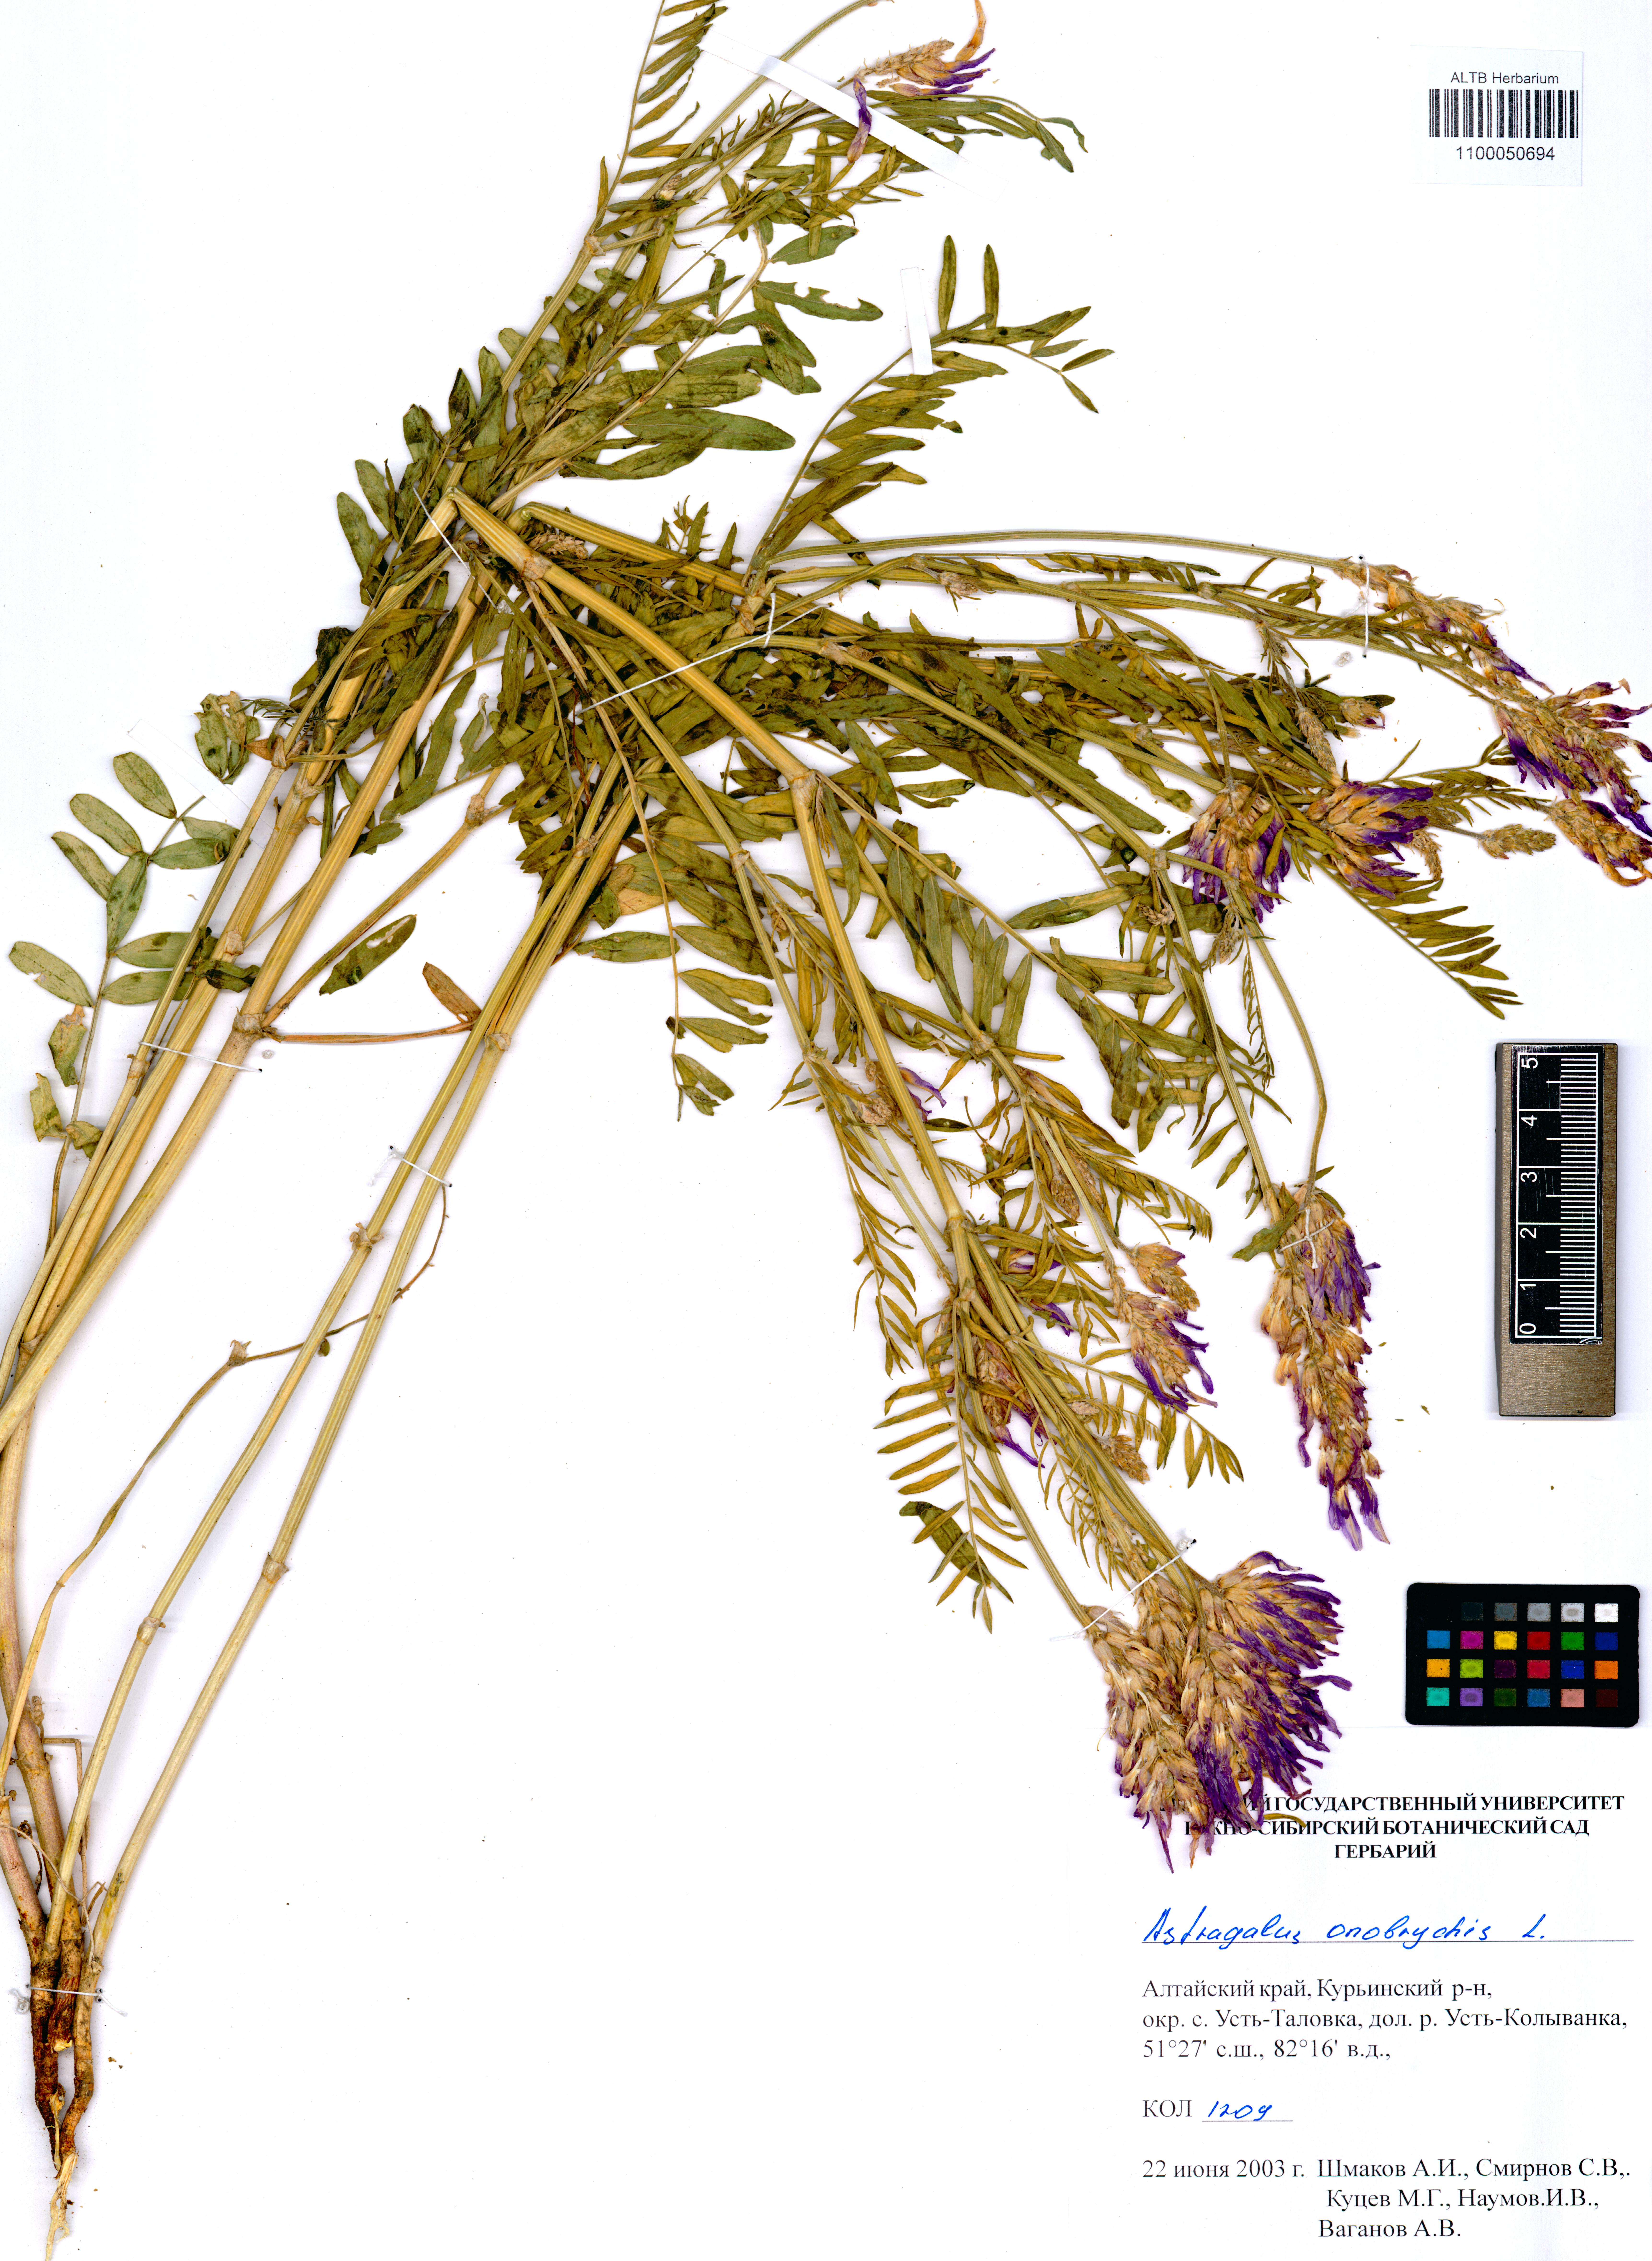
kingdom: Plantae
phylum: Tracheophyta
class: Magnoliopsida
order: Fabales
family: Fabaceae
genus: Astragalus
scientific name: Astragalus onobrychis
